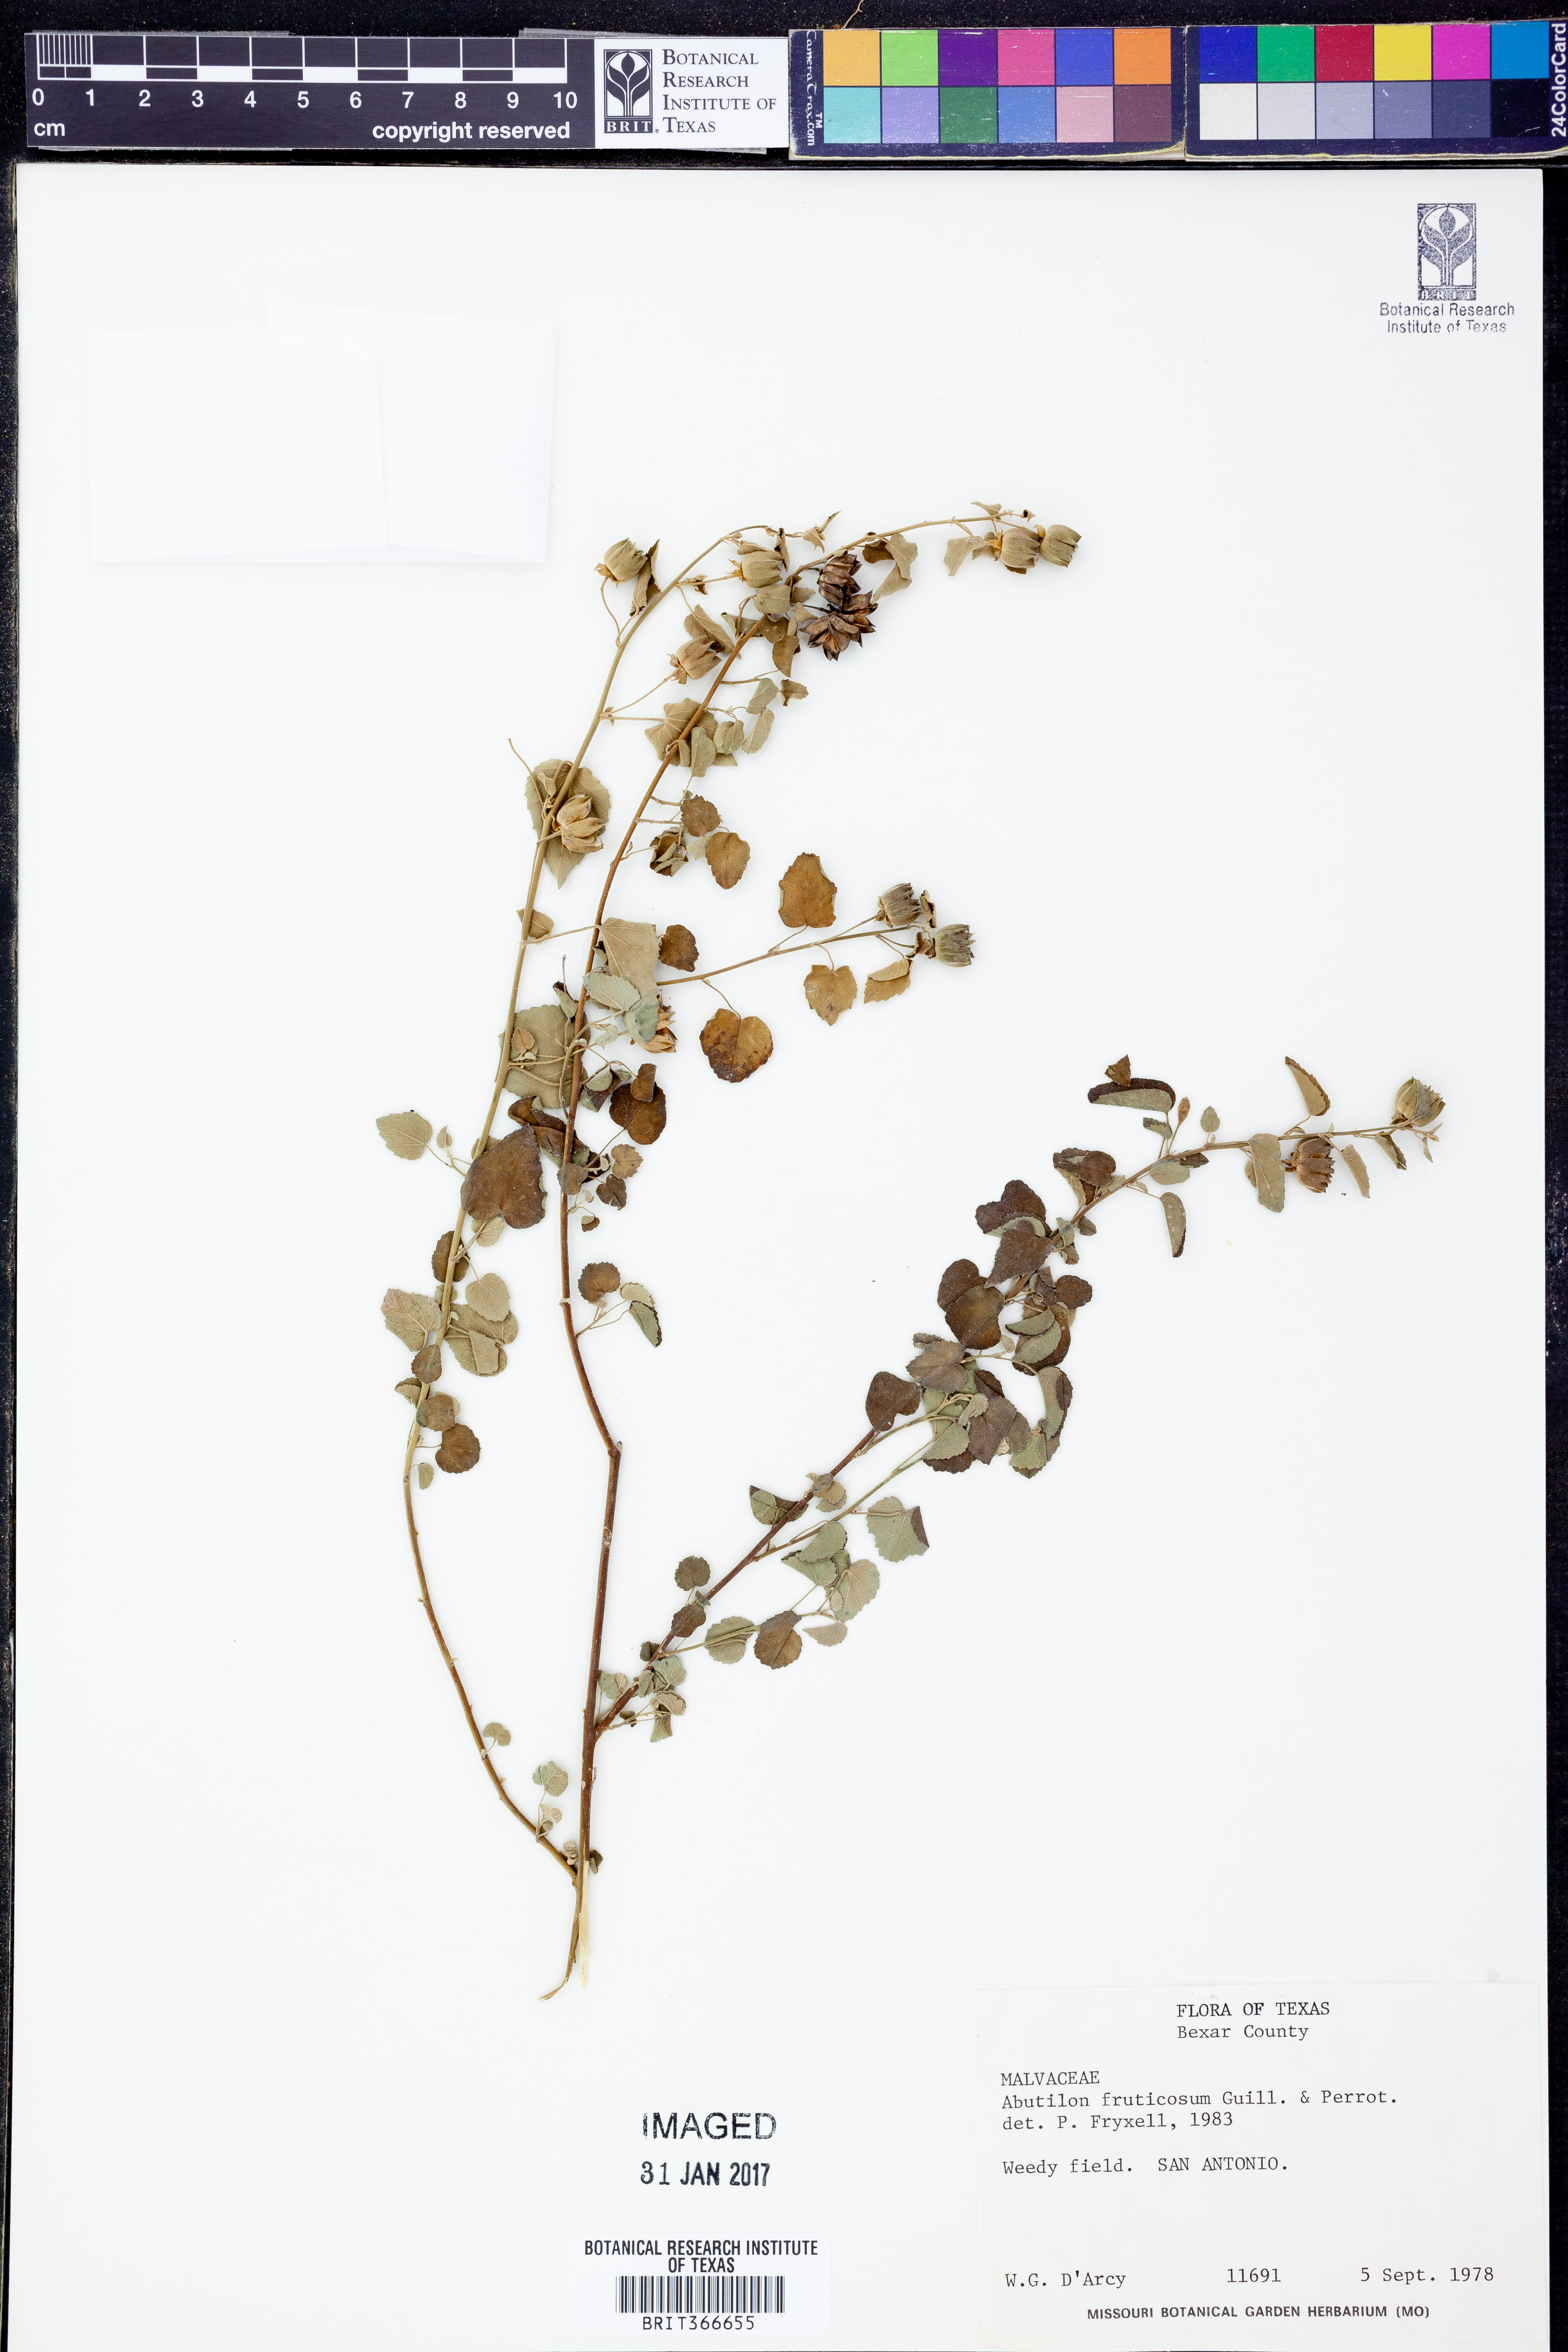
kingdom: Plantae
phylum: Tracheophyta
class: Magnoliopsida
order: Malvales
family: Malvaceae
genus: Abutilon
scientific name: Abutilon fruticosum
